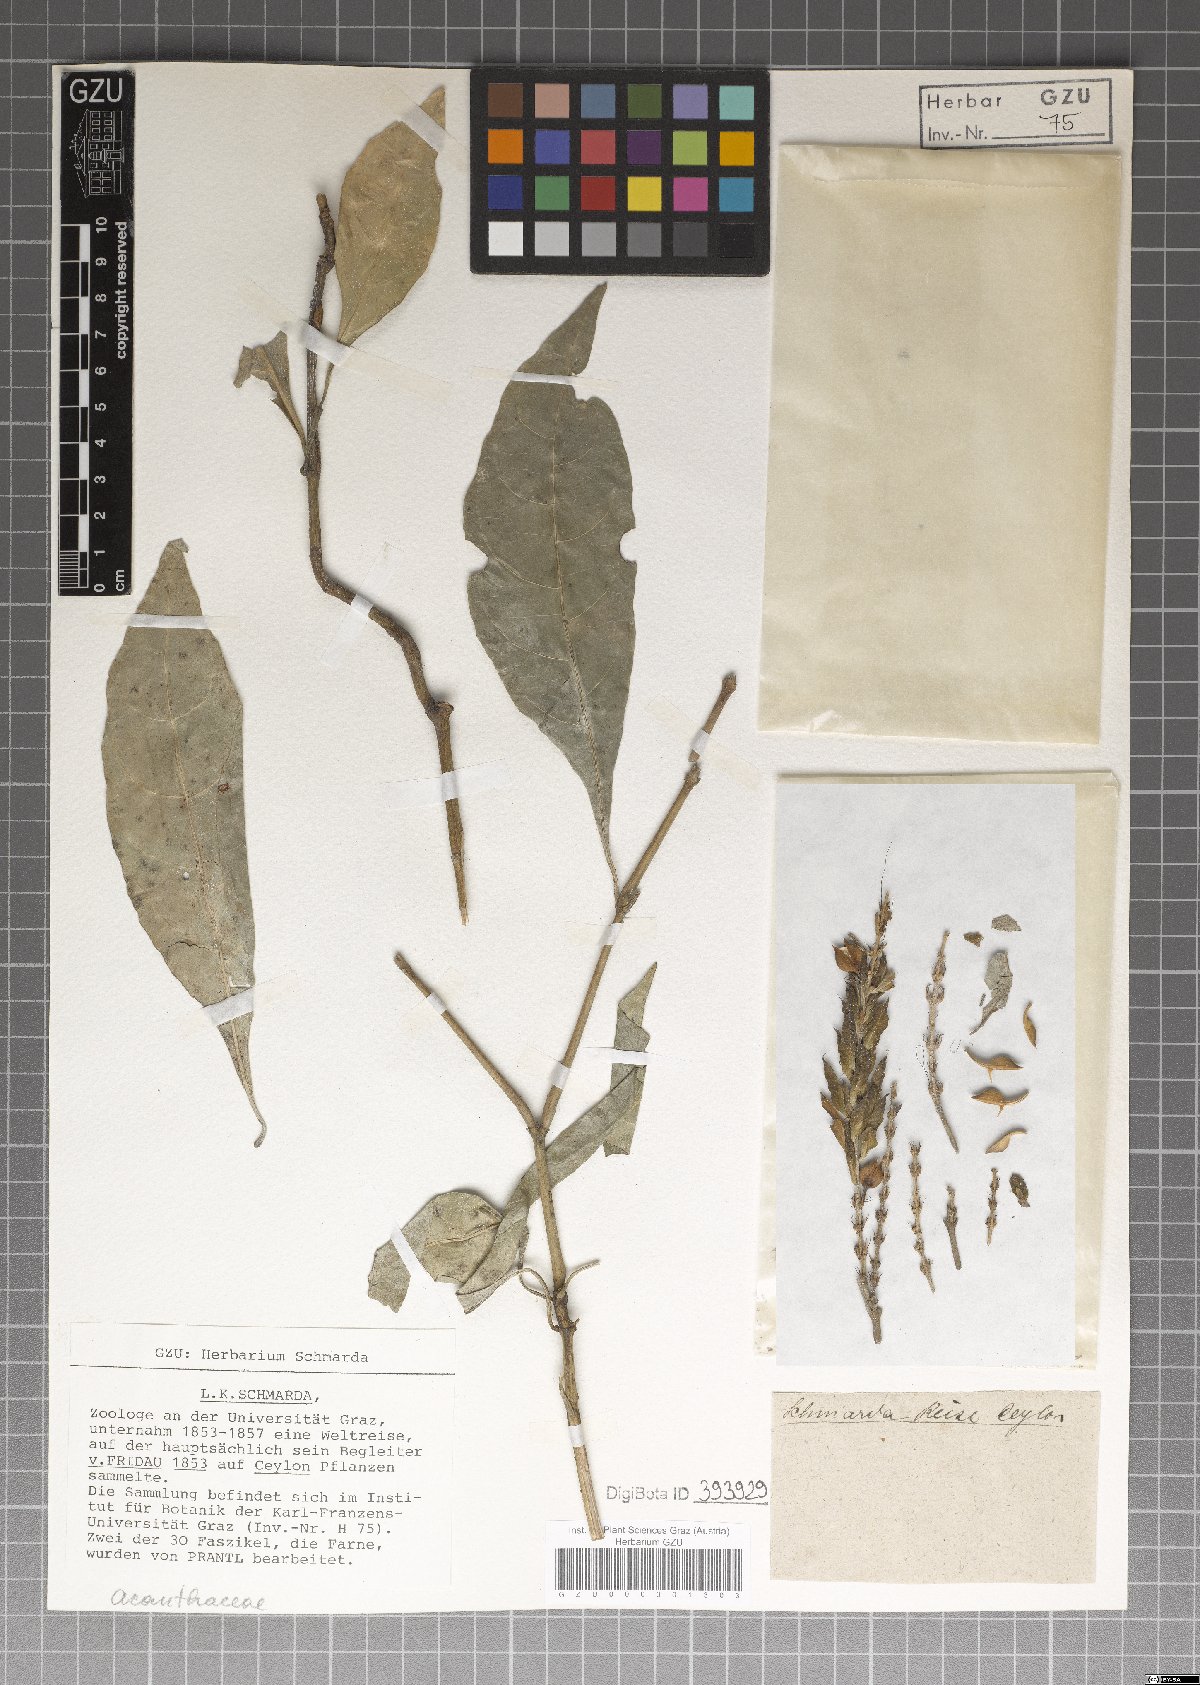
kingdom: Plantae
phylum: Tracheophyta
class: Magnoliopsida
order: Lamiales
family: Acanthaceae
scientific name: Acanthaceae
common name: Acanthaceae
